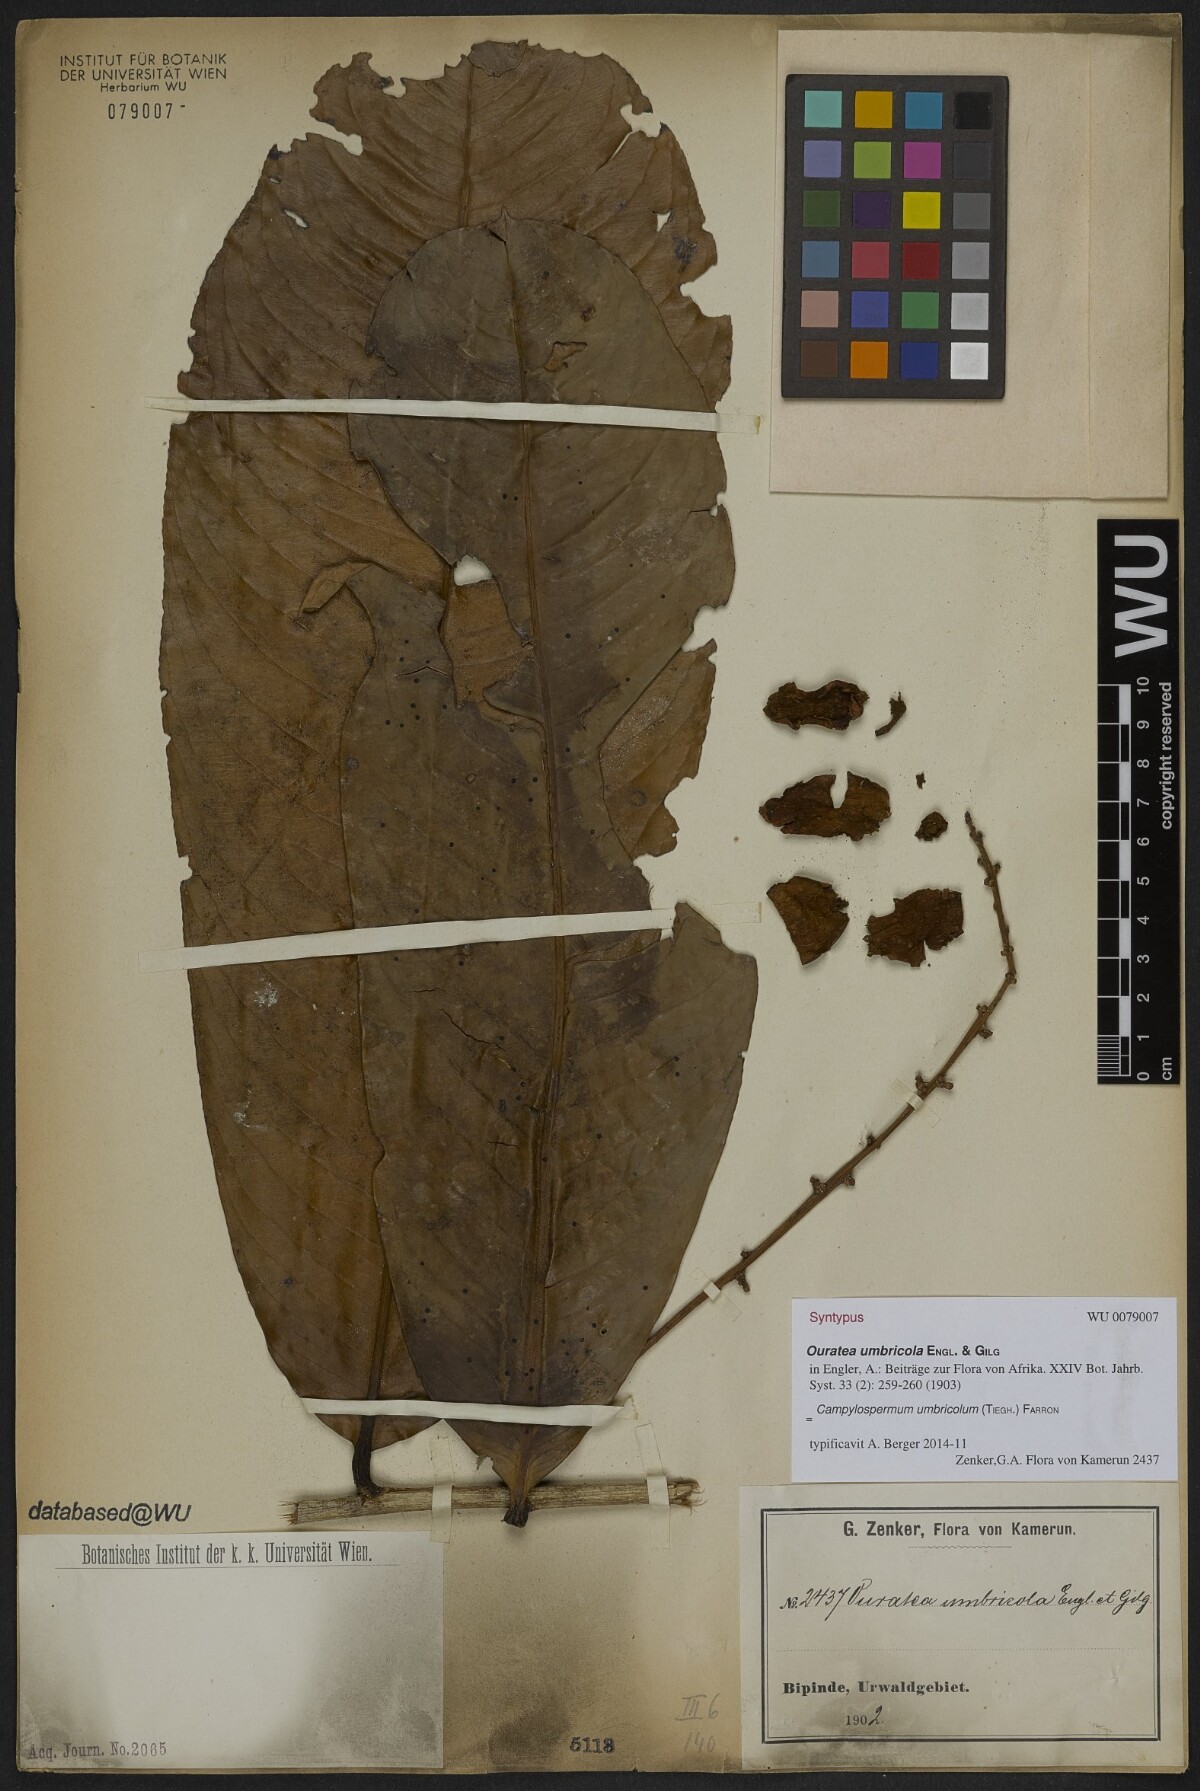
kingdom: Plantae
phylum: Tracheophyta
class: Magnoliopsida
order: Malpighiales
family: Ochnaceae
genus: Campylospermum
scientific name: Campylospermum umbricola
